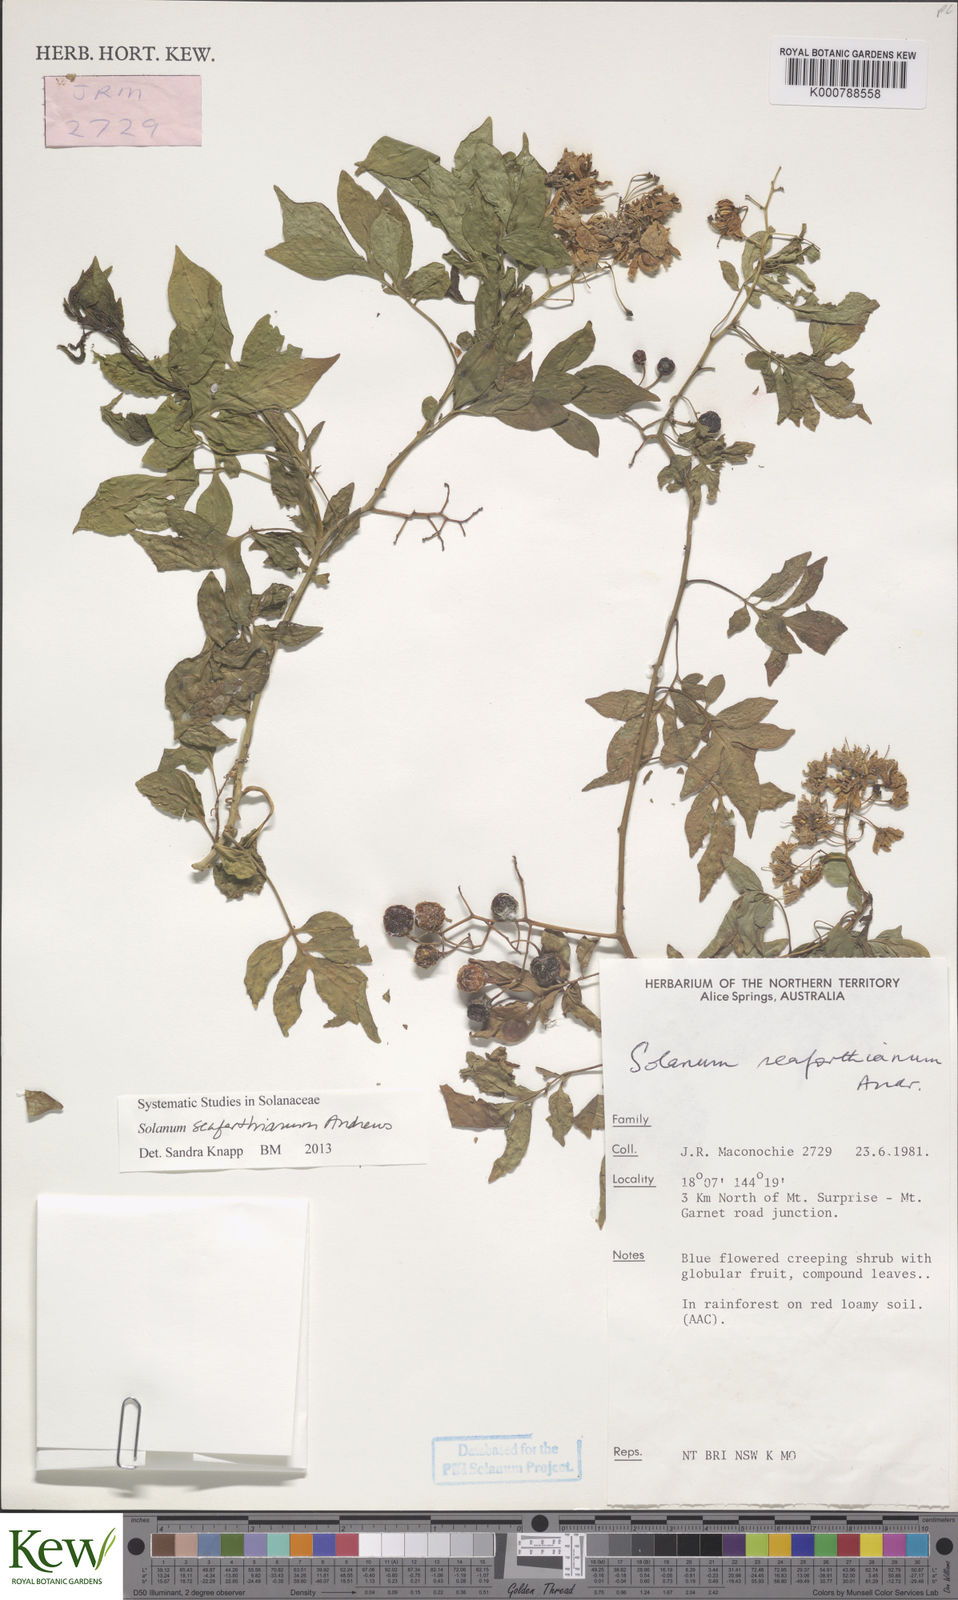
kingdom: Plantae
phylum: Tracheophyta
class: Magnoliopsida
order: Solanales
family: Solanaceae
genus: Solanum
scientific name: Solanum seaforthianum
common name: Brazilian nightshade
